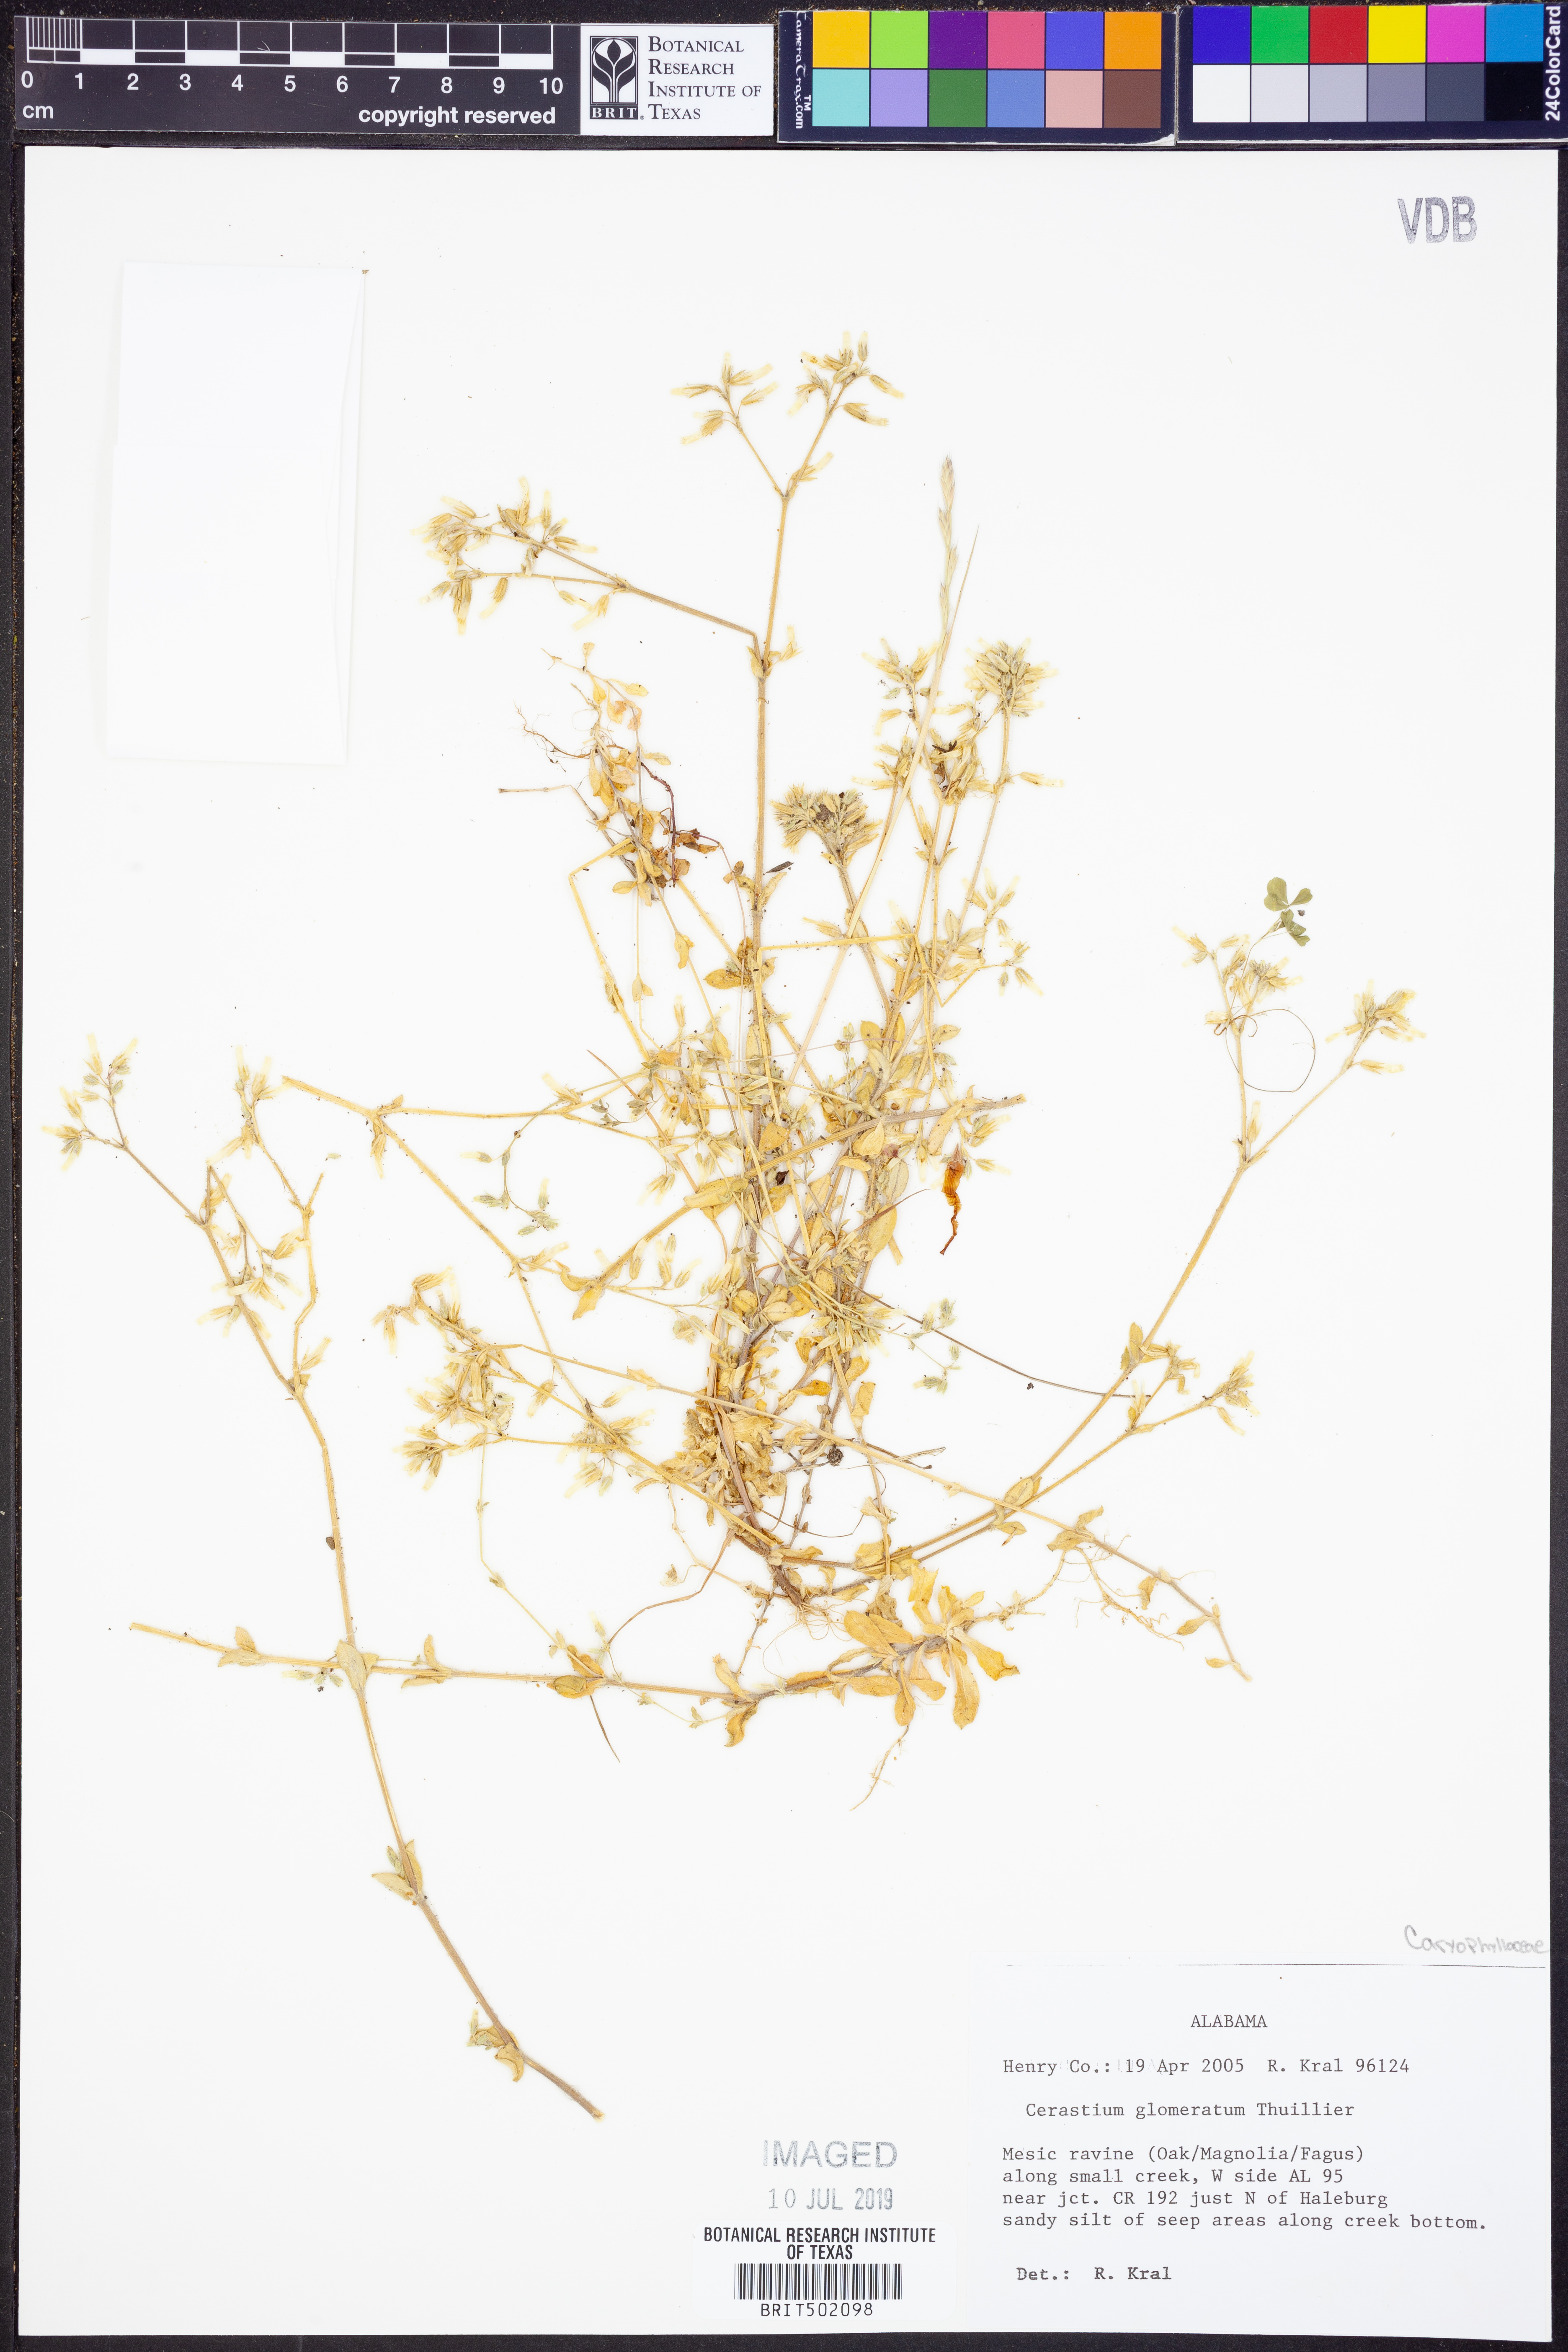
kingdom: Plantae
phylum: Tracheophyta
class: Magnoliopsida
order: Caryophyllales
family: Caryophyllaceae
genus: Cerastium
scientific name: Cerastium glomeratum
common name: Sticky chickweed
